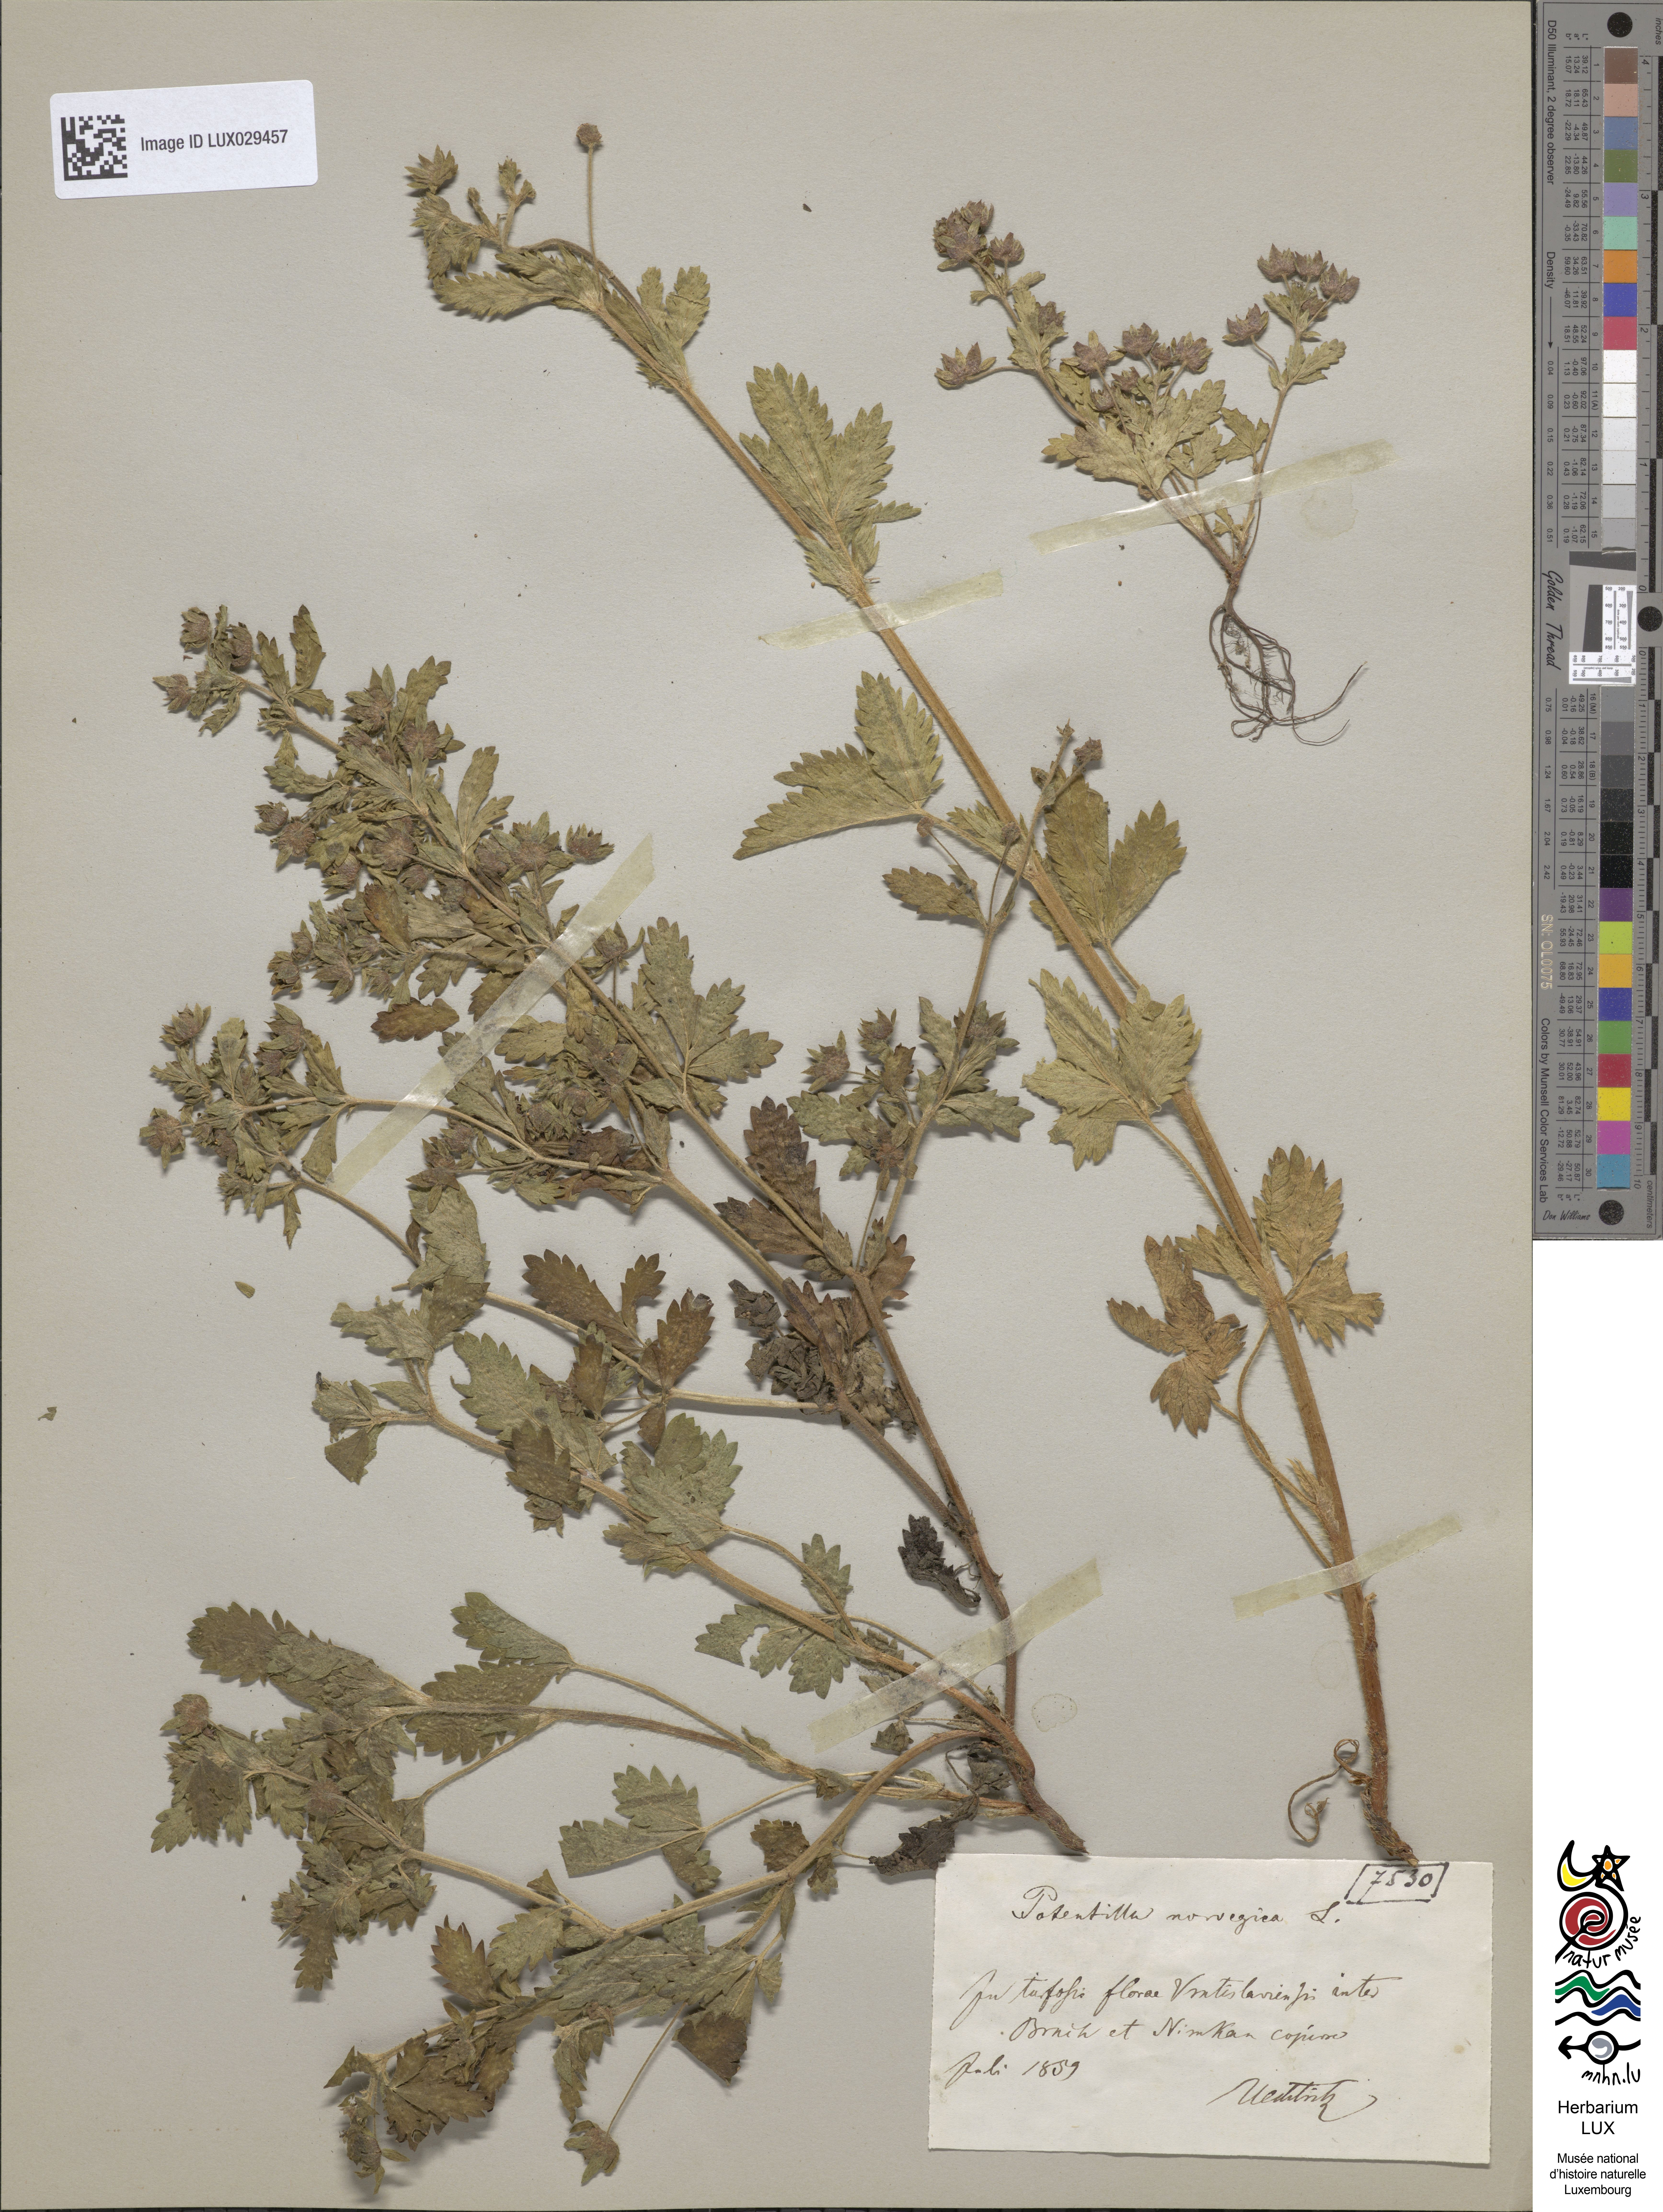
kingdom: Plantae
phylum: Tracheophyta
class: Magnoliopsida
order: Rosales
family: Rosaceae
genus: Potentilla
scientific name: Potentilla norvegica
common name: Ternate-leaved cinquefoil
